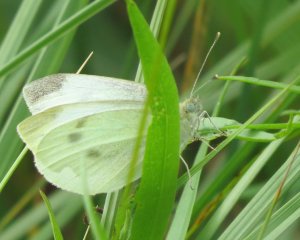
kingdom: Animalia
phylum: Arthropoda
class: Insecta
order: Lepidoptera
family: Pieridae
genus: Pieris
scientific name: Pieris rapae
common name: Cabbage White
